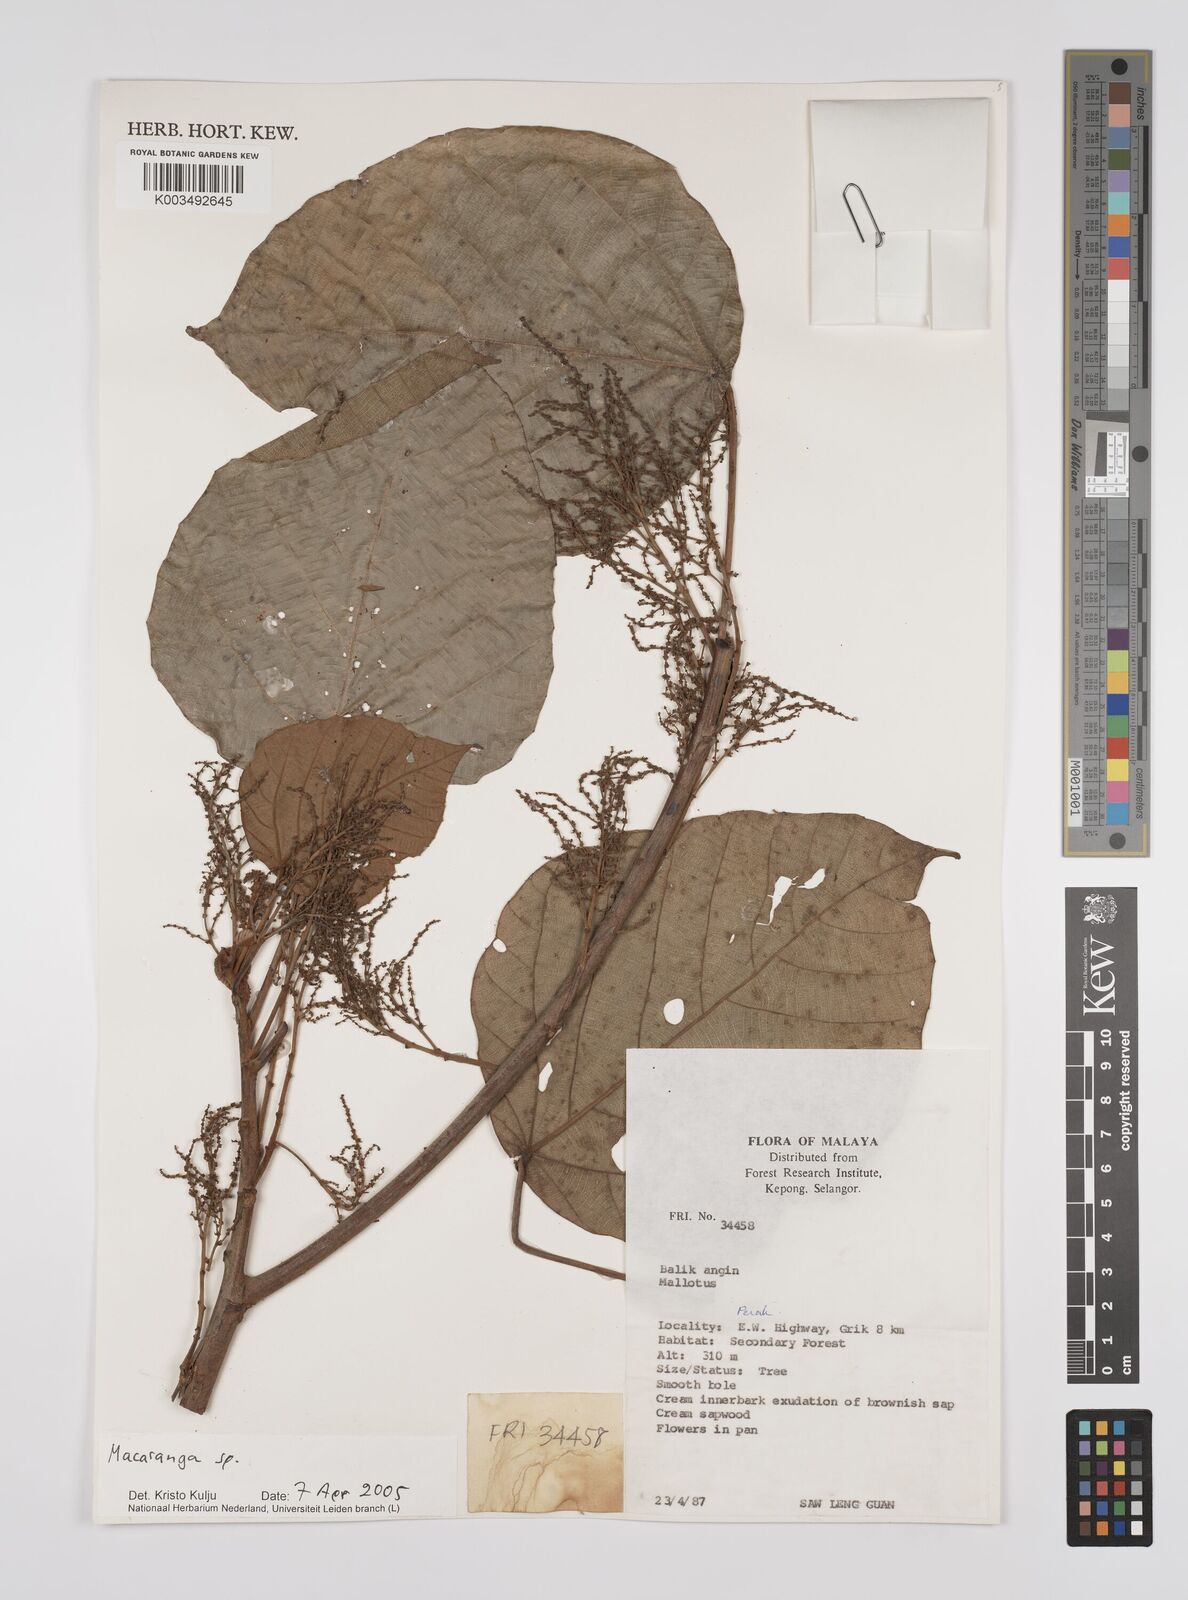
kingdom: Plantae
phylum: Tracheophyta
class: Magnoliopsida
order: Malpighiales
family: Euphorbiaceae
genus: Macaranga
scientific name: Macaranga
